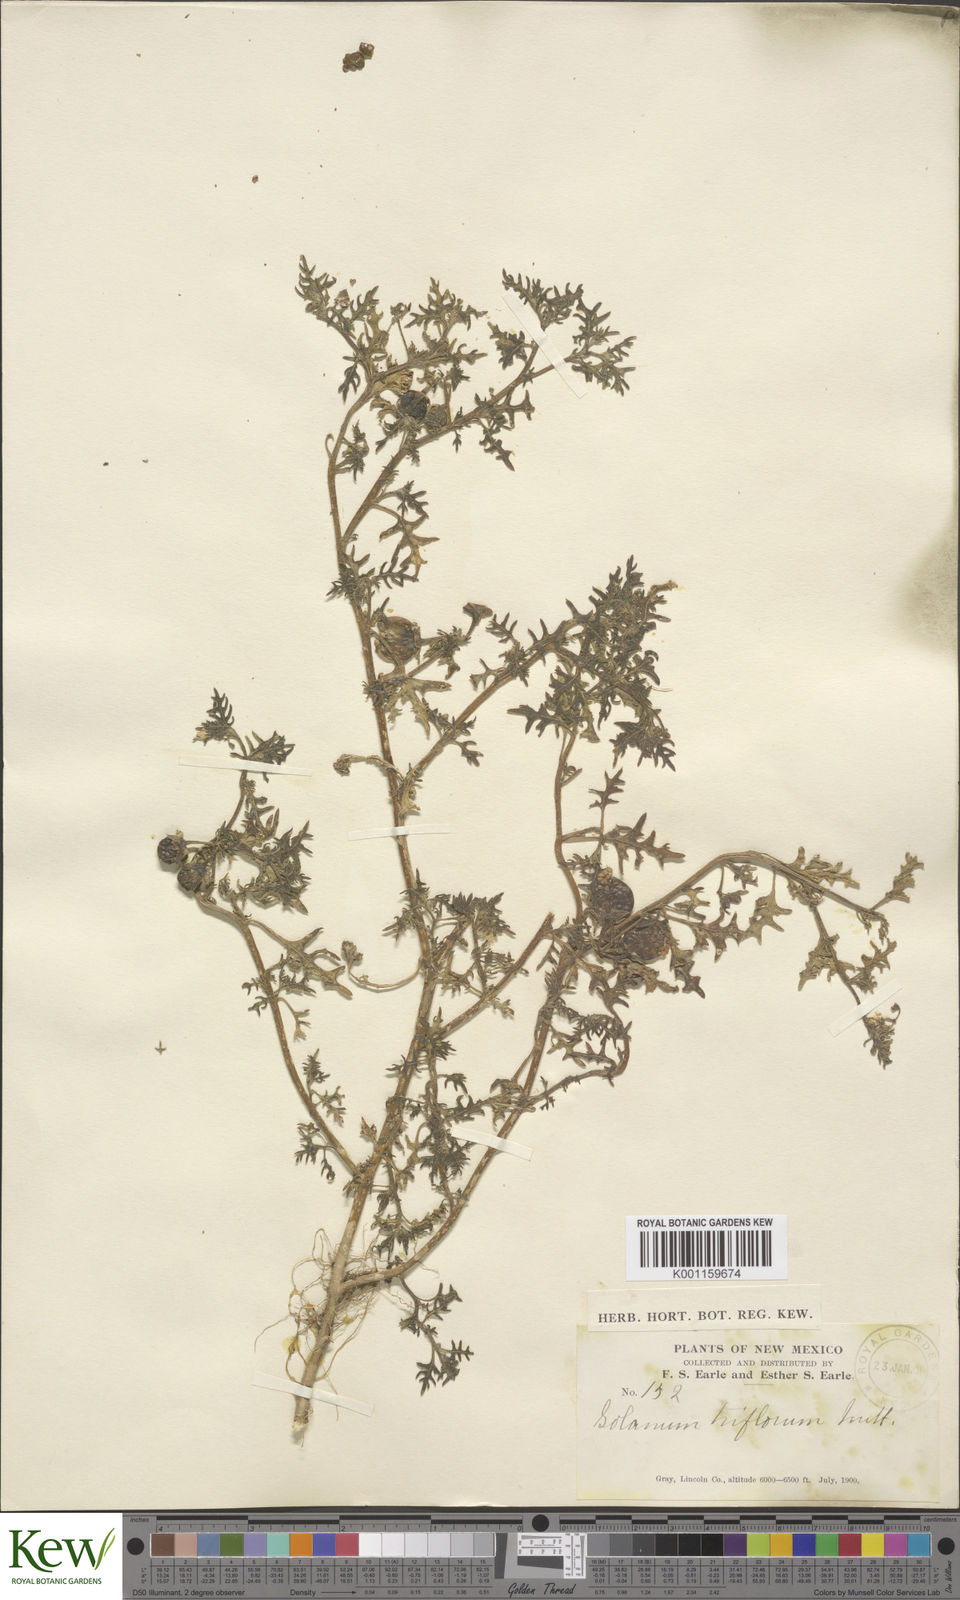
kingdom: Plantae
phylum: Tracheophyta
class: Magnoliopsida
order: Solanales
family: Solanaceae
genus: Solanum
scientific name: Solanum triflorum
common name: Small nightshade
